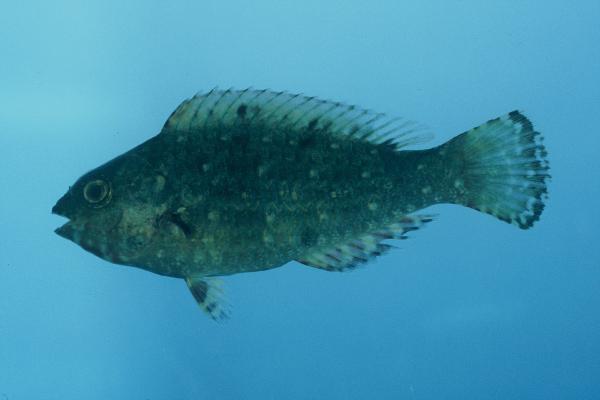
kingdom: Animalia
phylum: Chordata
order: Perciformes
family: Scaridae
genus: Calotomus
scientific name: Calotomus carolinus
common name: Bucktooth
